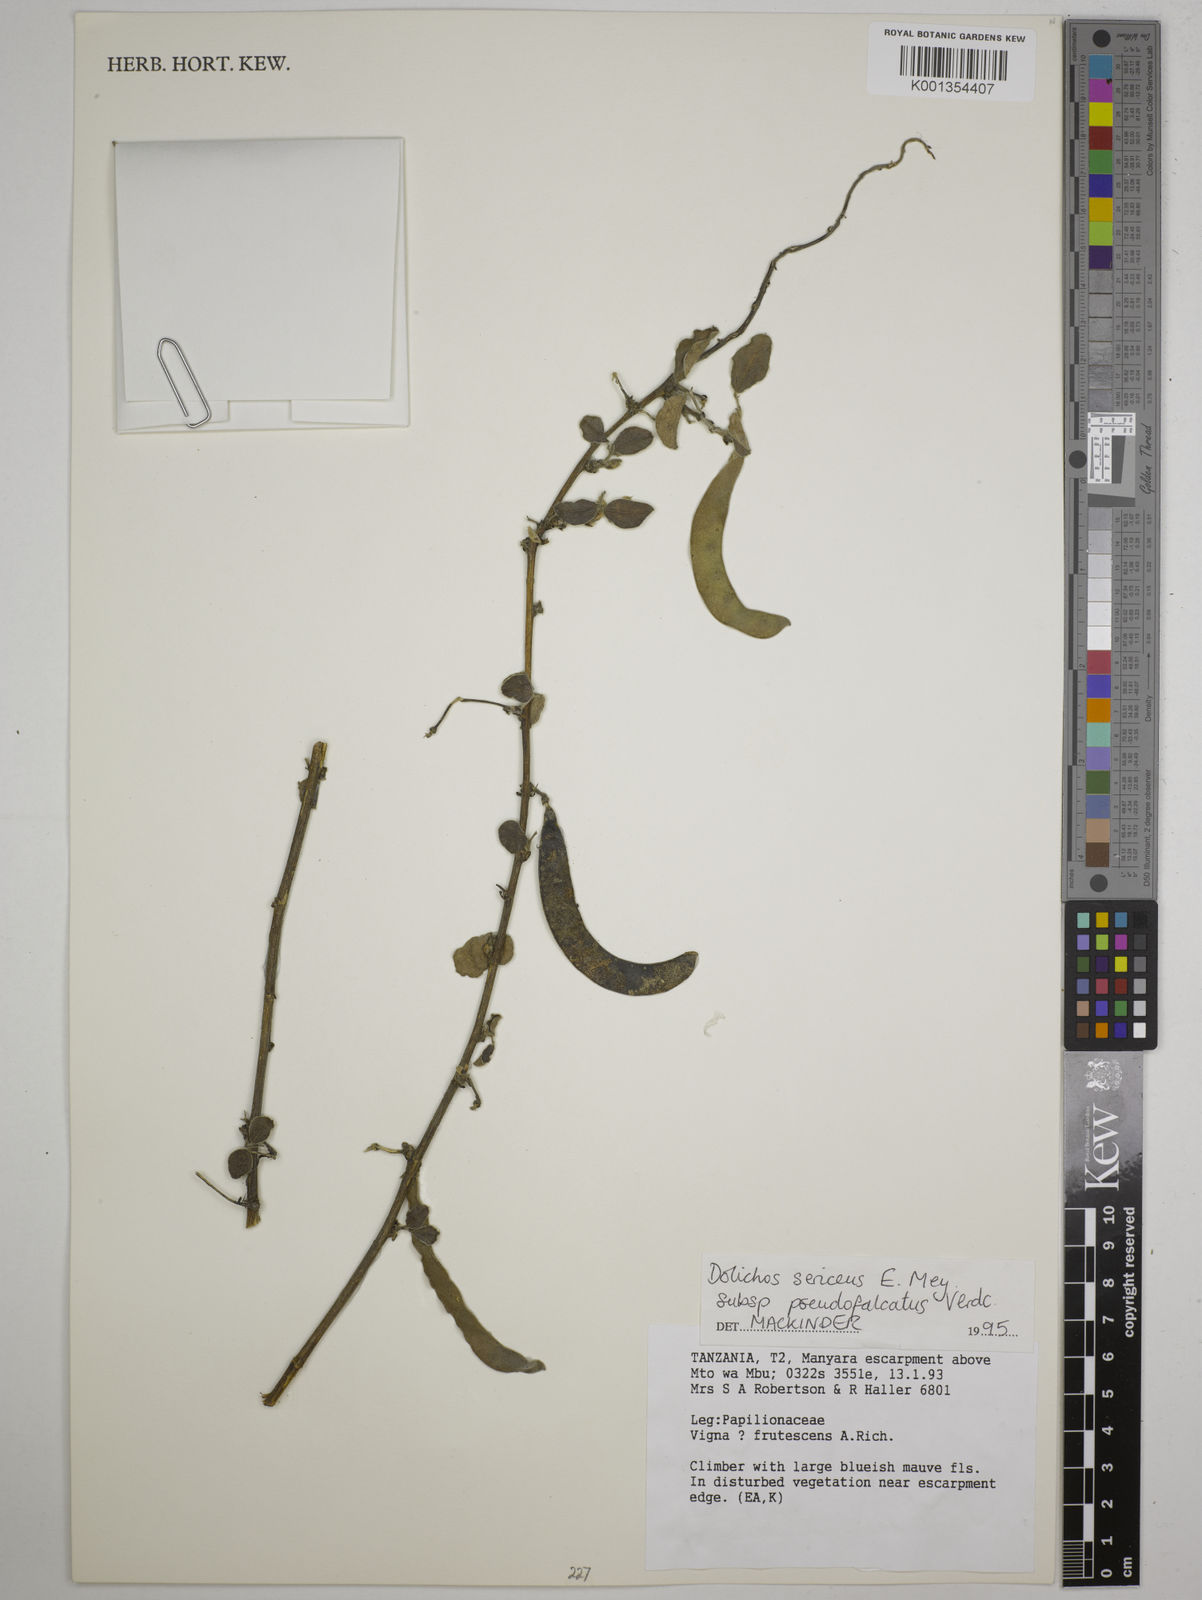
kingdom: Plantae
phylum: Tracheophyta
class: Magnoliopsida
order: Fabales
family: Fabaceae
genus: Dolichos
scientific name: Dolichos
